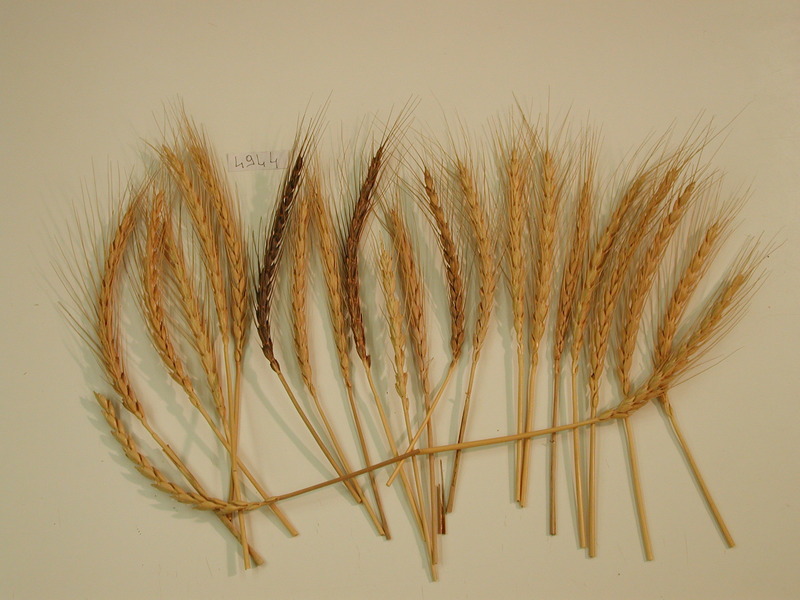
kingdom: Plantae
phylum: Tracheophyta
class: Liliopsida
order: Poales
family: Poaceae
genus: Triticum
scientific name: Triticum aestivum
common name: Wheat
